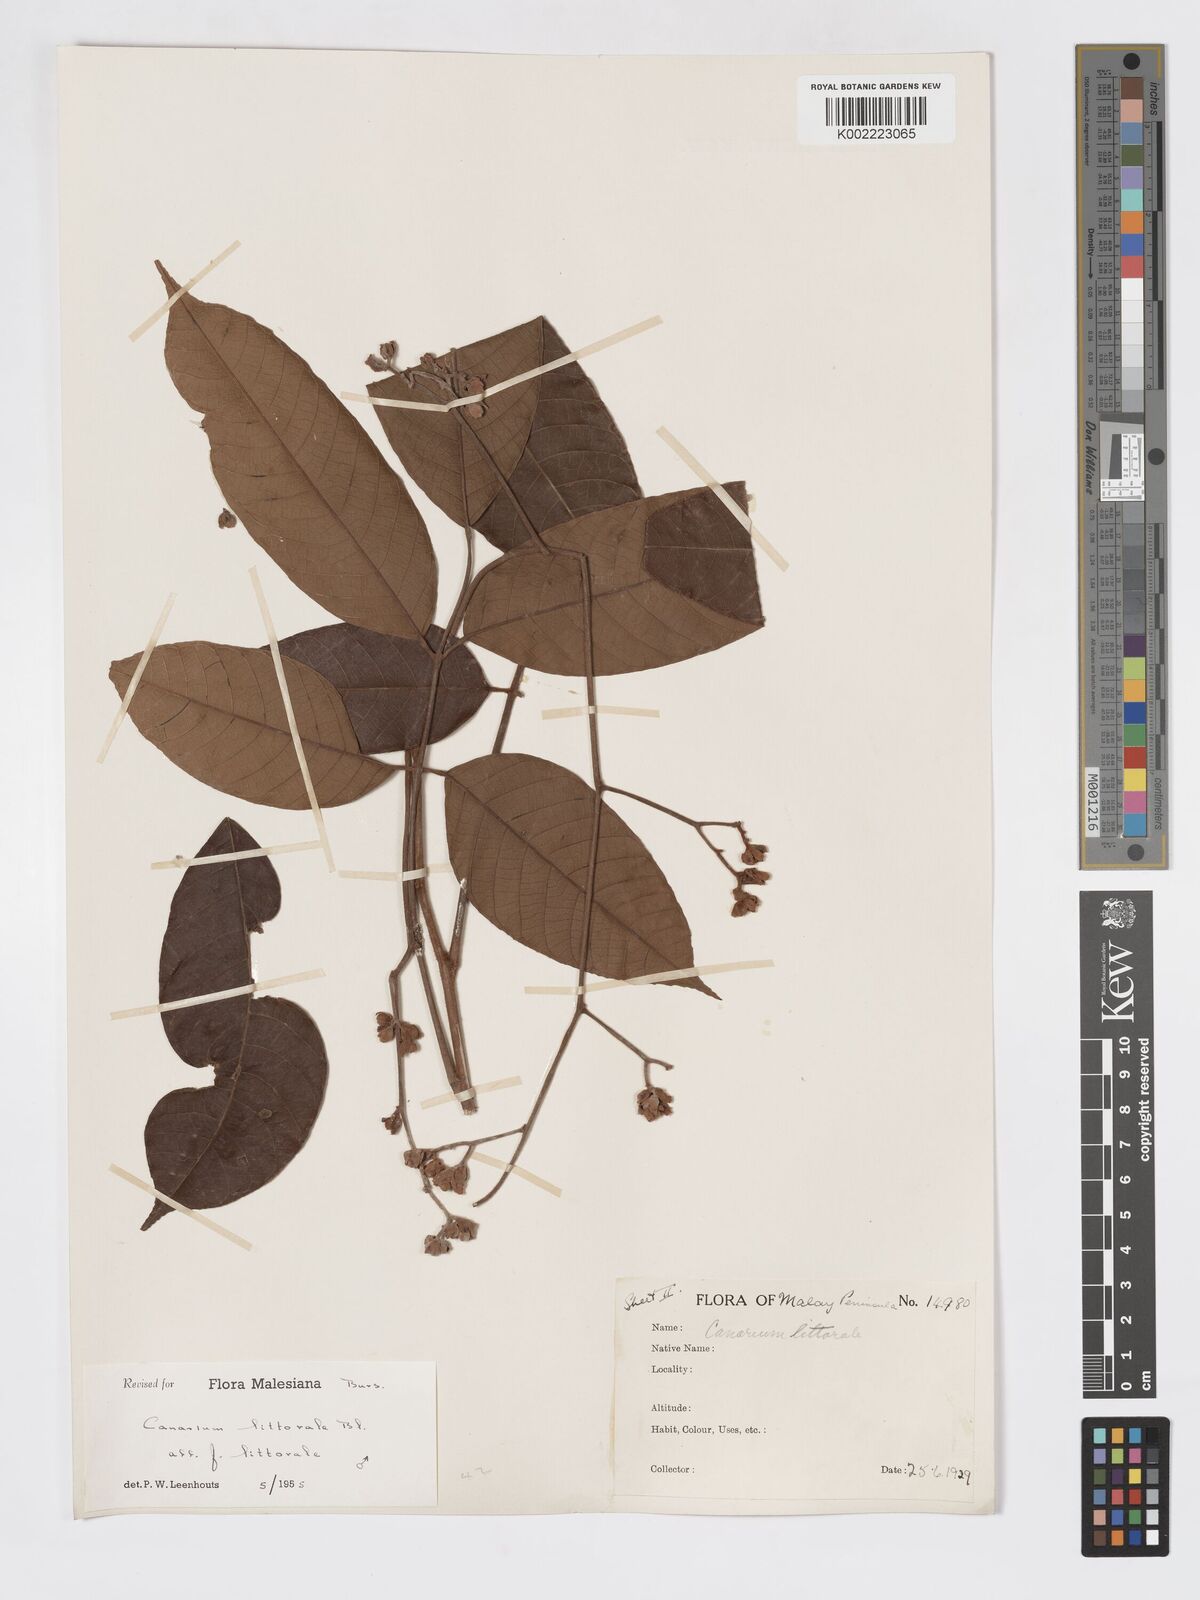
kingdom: Plantae
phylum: Tracheophyta
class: Magnoliopsida
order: Sapindales
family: Burseraceae
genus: Canarium
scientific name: Canarium littorale
